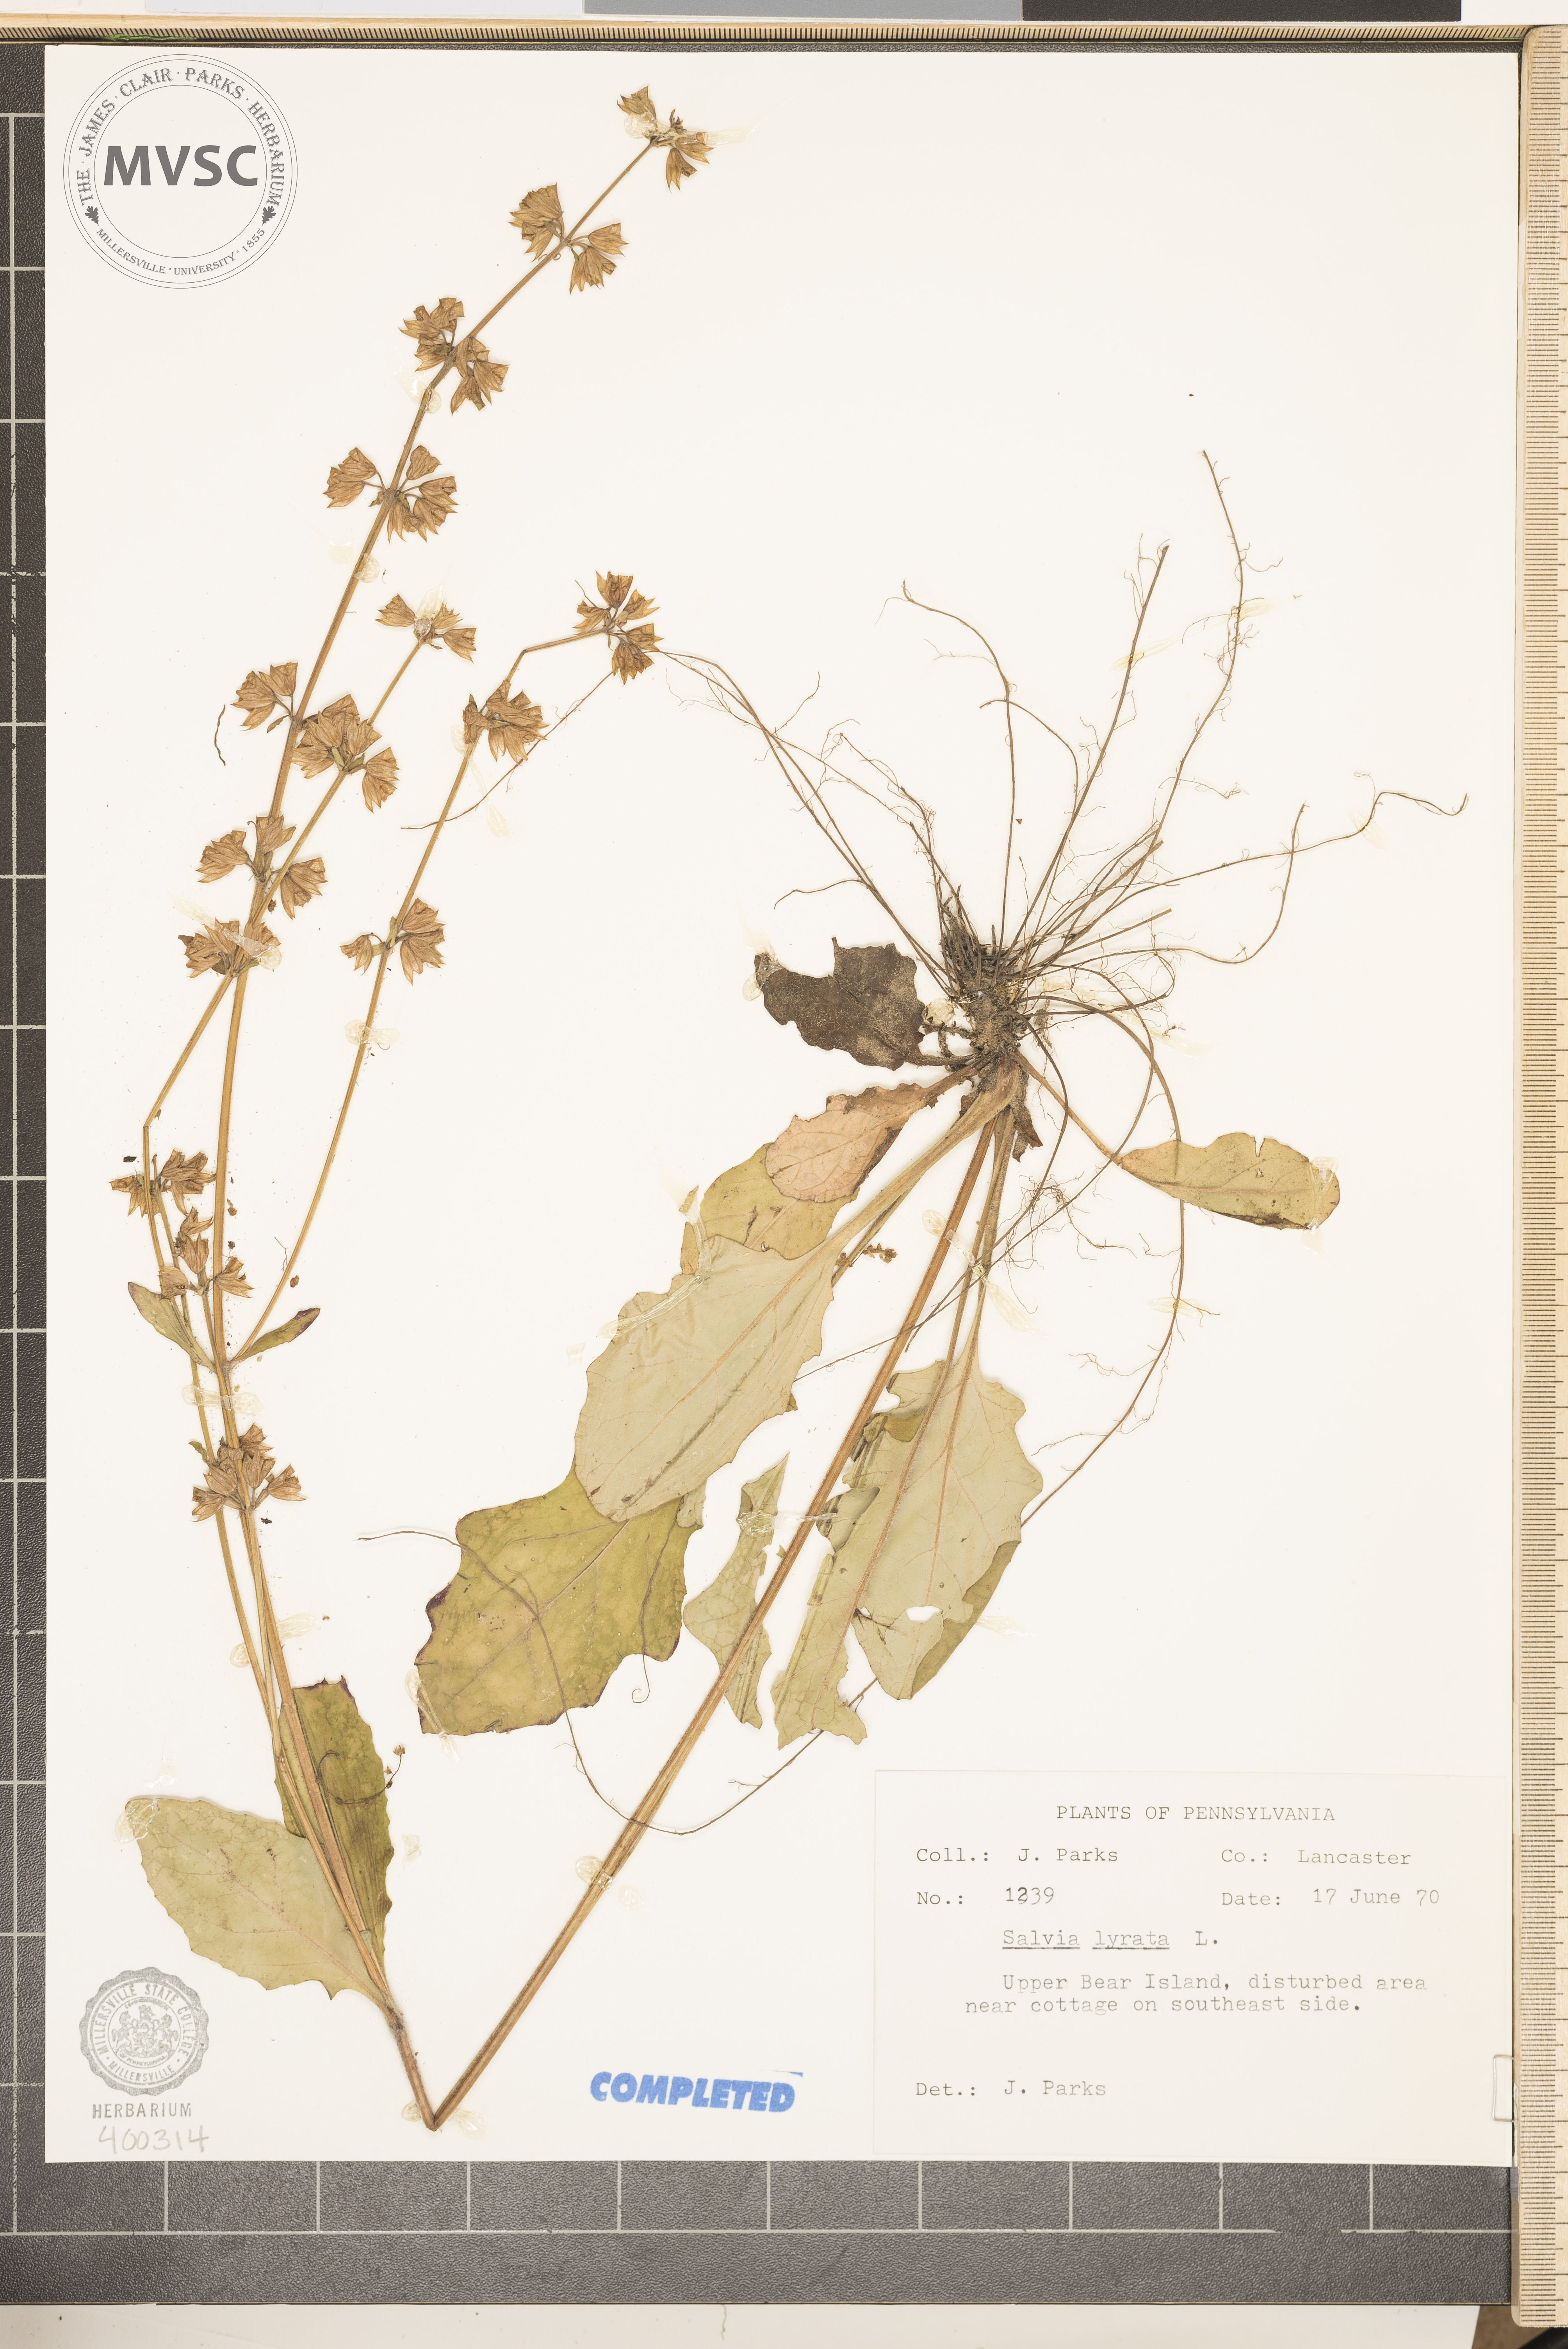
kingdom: Plantae
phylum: Tracheophyta
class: Magnoliopsida
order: Lamiales
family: Lamiaceae
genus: Salvia
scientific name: Salvia lyrata
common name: salvia
